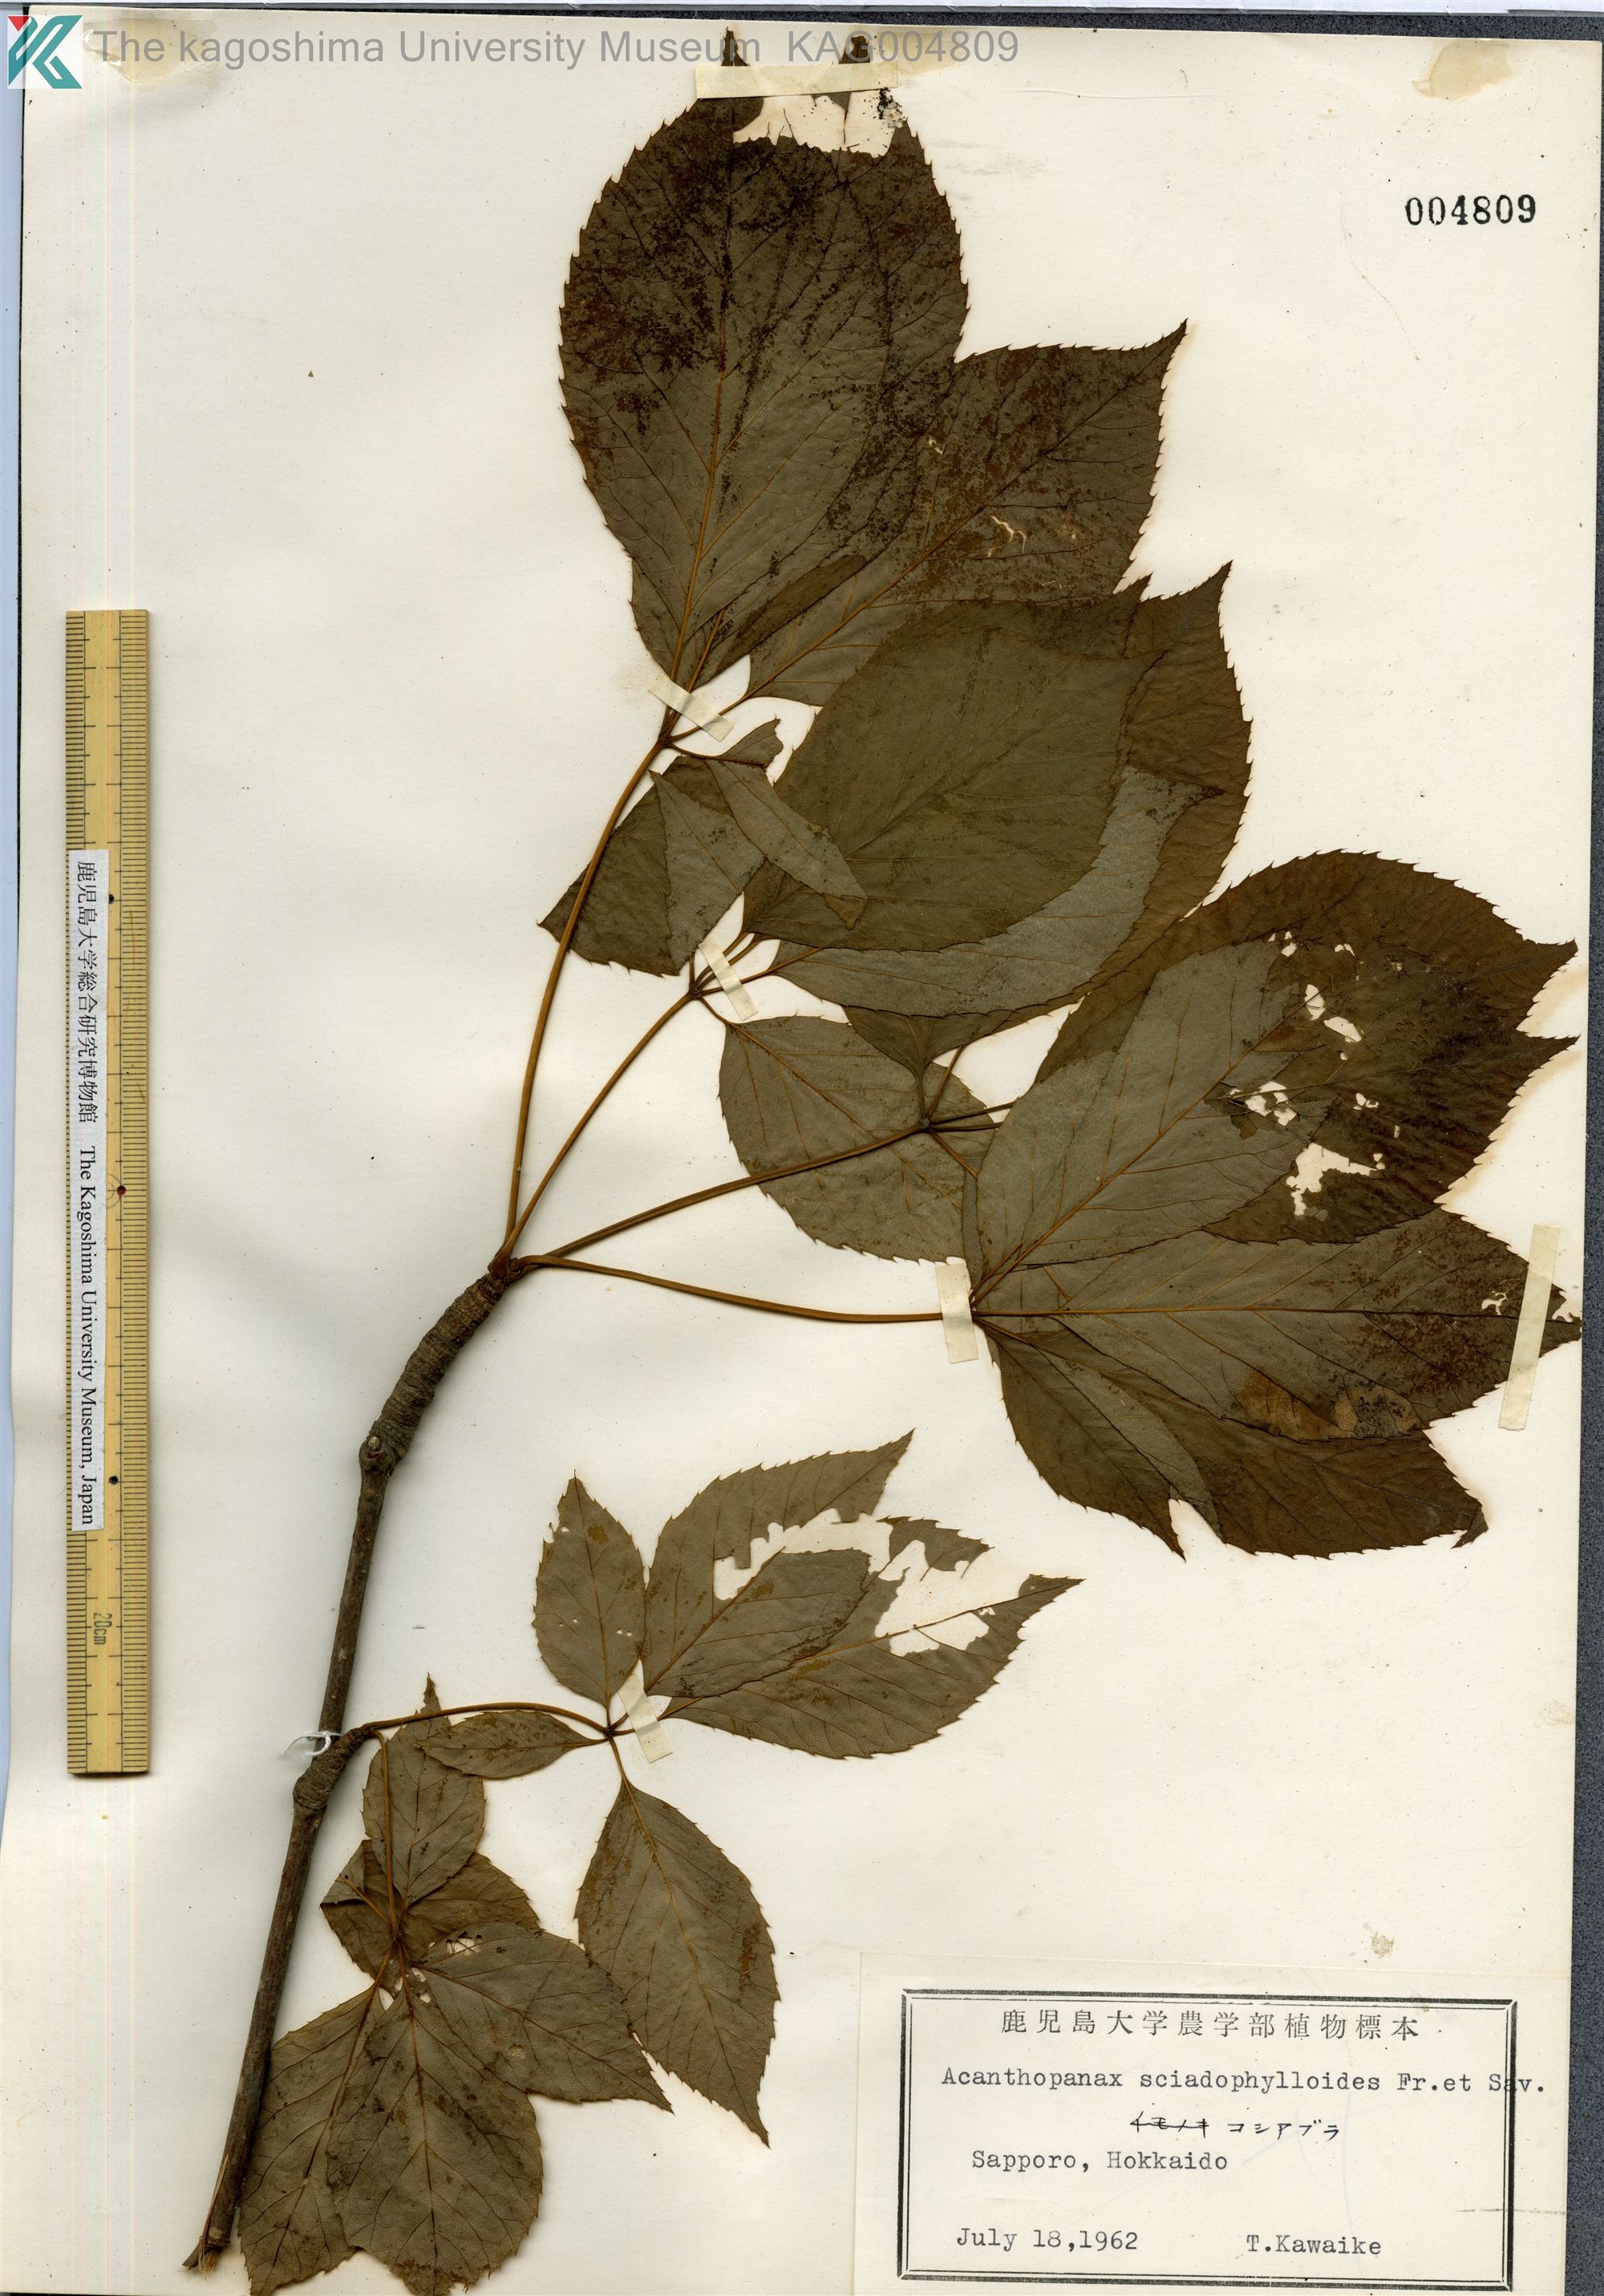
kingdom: Plantae
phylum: Tracheophyta
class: Magnoliopsida
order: Apiales
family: Araliaceae
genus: Chengiopanax
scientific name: Chengiopanax sciadophylloides
